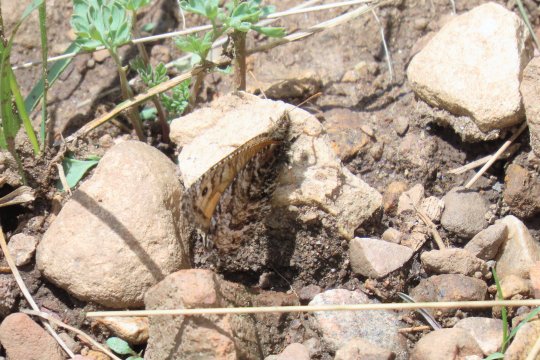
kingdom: Animalia
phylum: Arthropoda
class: Insecta
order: Lepidoptera
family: Nymphalidae
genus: Oeneis
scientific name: Oeneis chryxus
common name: Chryxus Arctic
